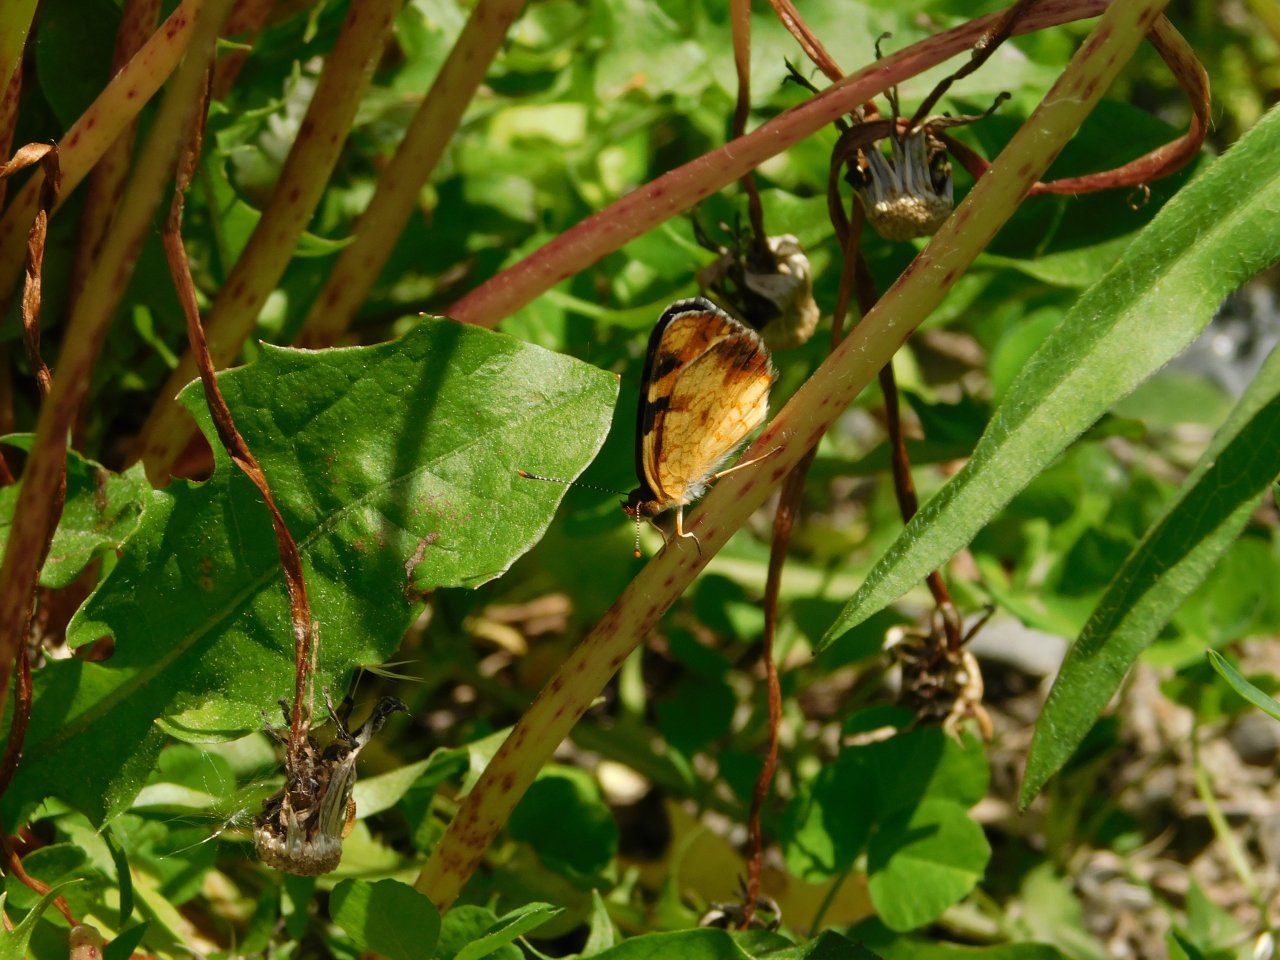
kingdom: Animalia
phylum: Arthropoda
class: Insecta
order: Lepidoptera
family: Nymphalidae
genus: Phyciodes
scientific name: Phyciodes tharos
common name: Northern Crescent
